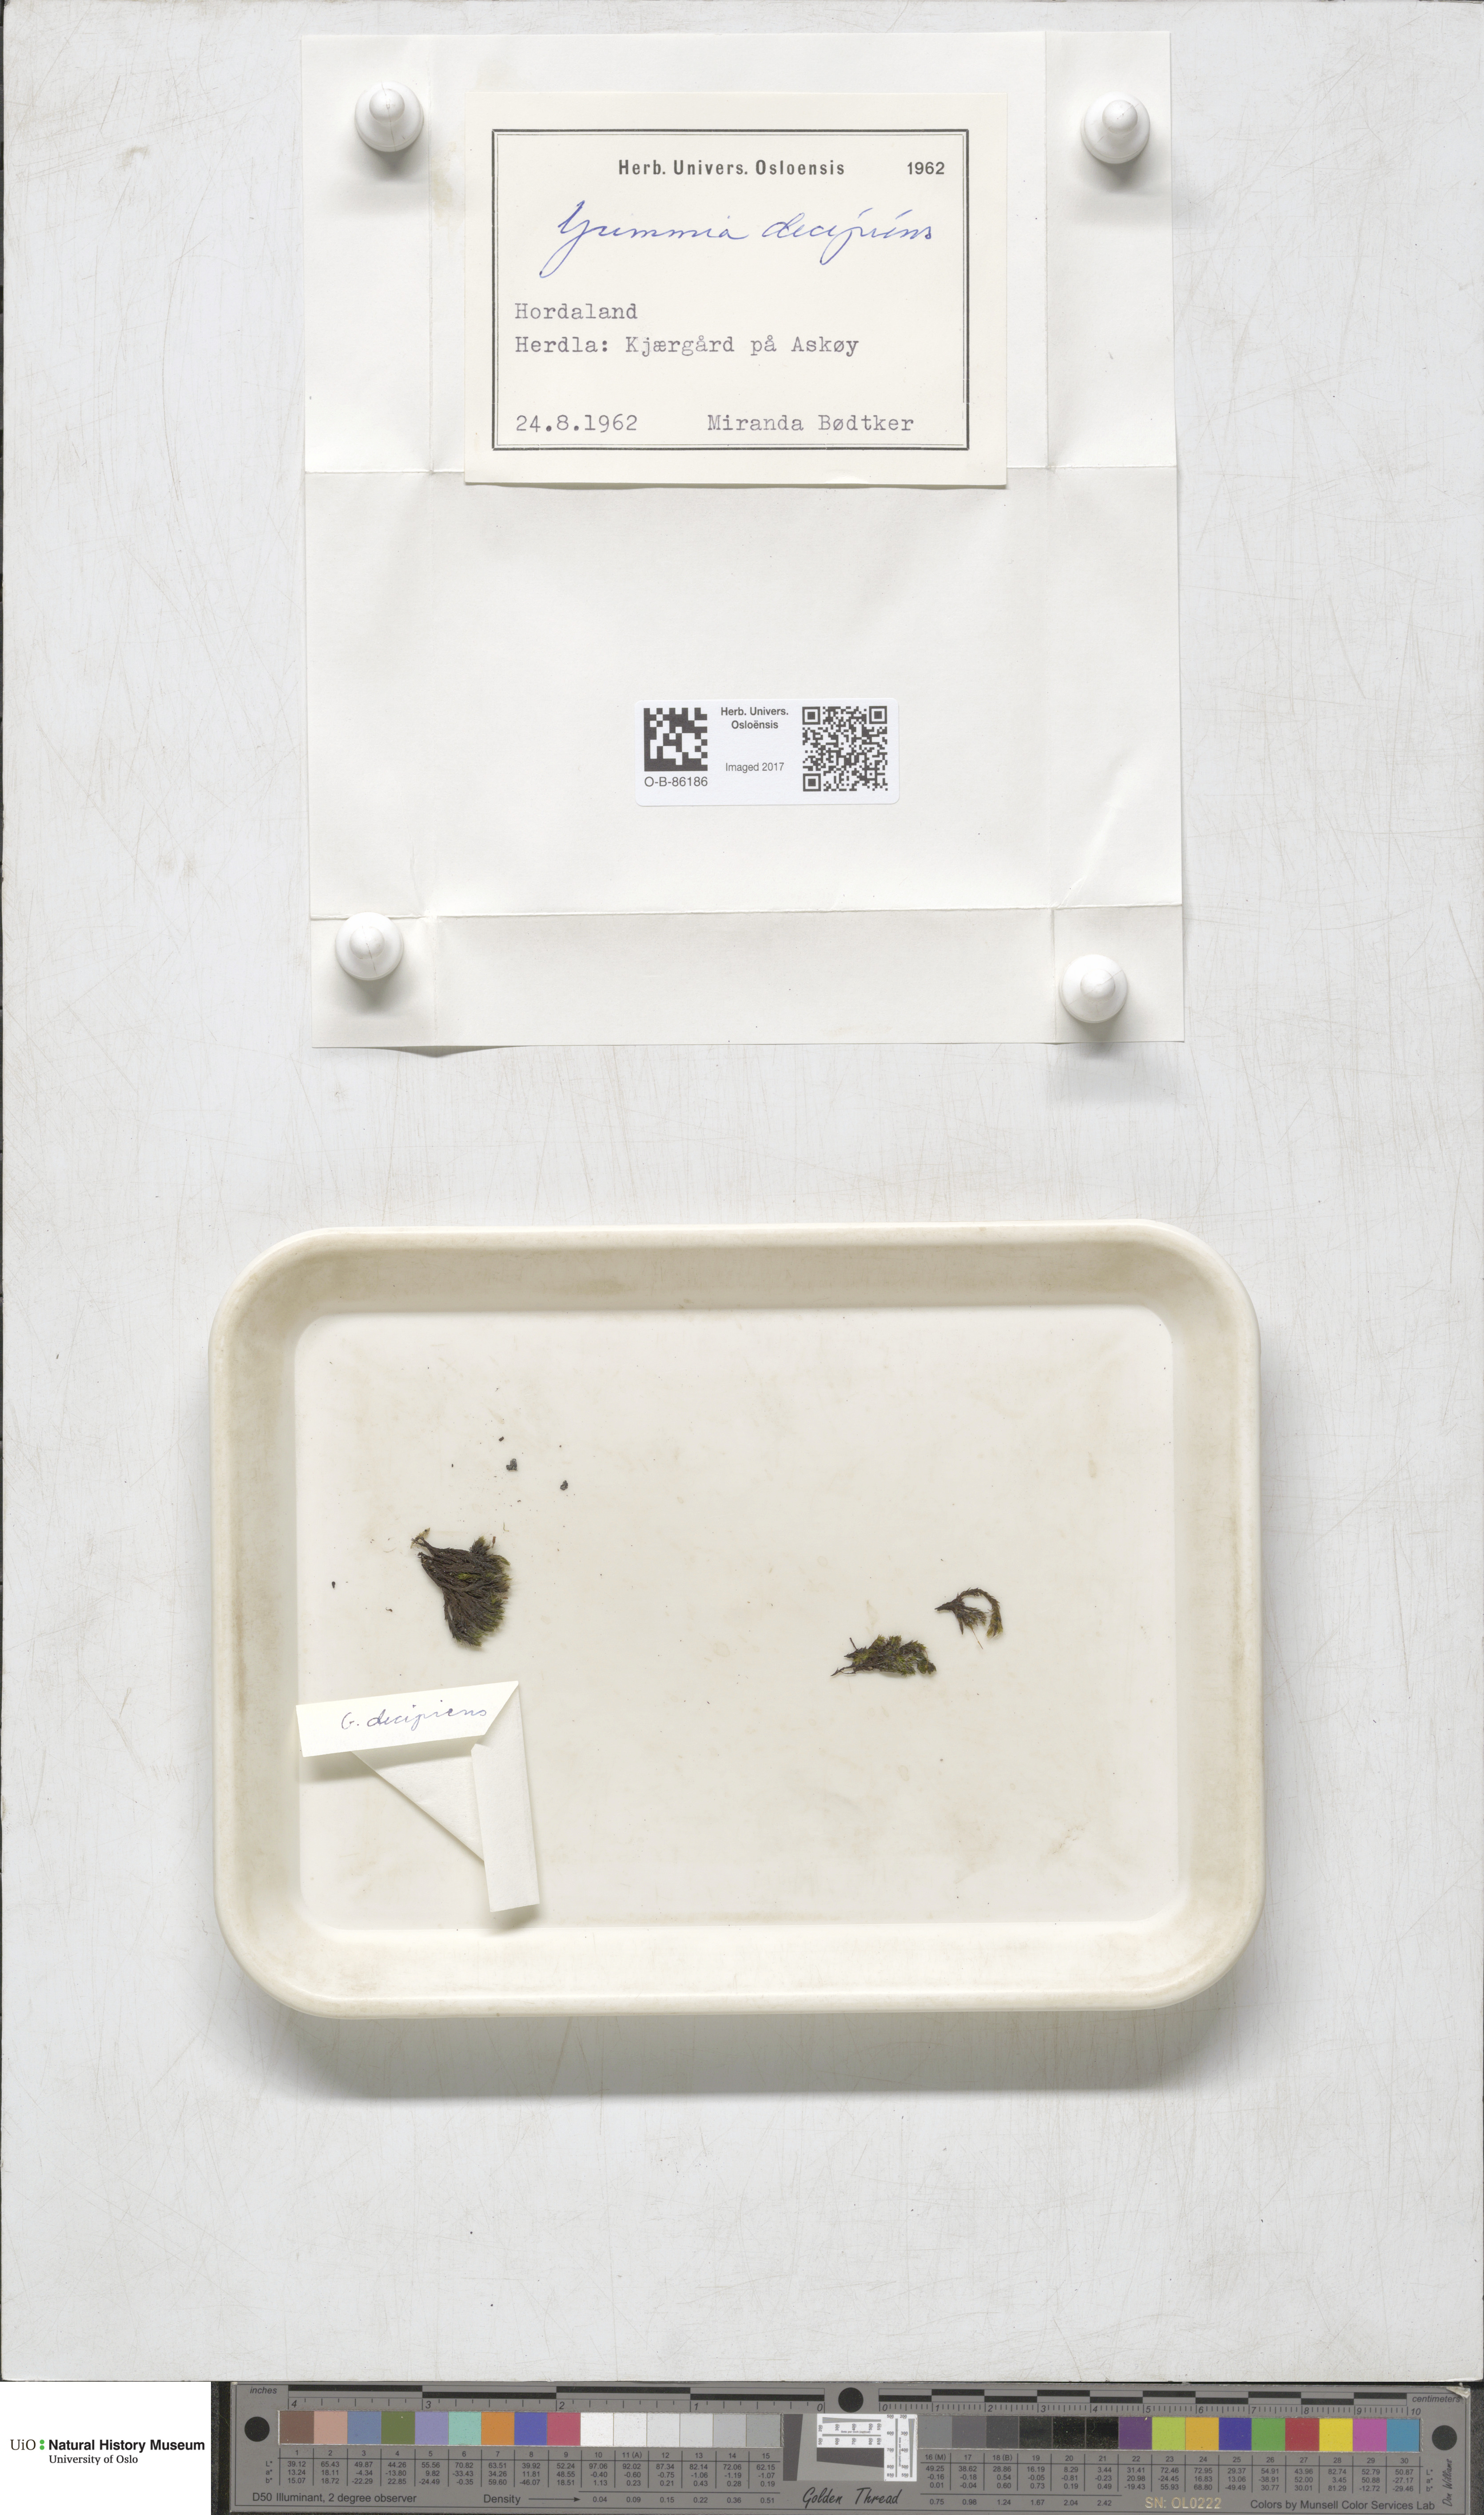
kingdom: Plantae
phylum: Bryophyta
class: Bryopsida
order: Grimmiales
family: Grimmiaceae
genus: Grimmia
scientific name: Grimmia decipiens
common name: Great grimmia
